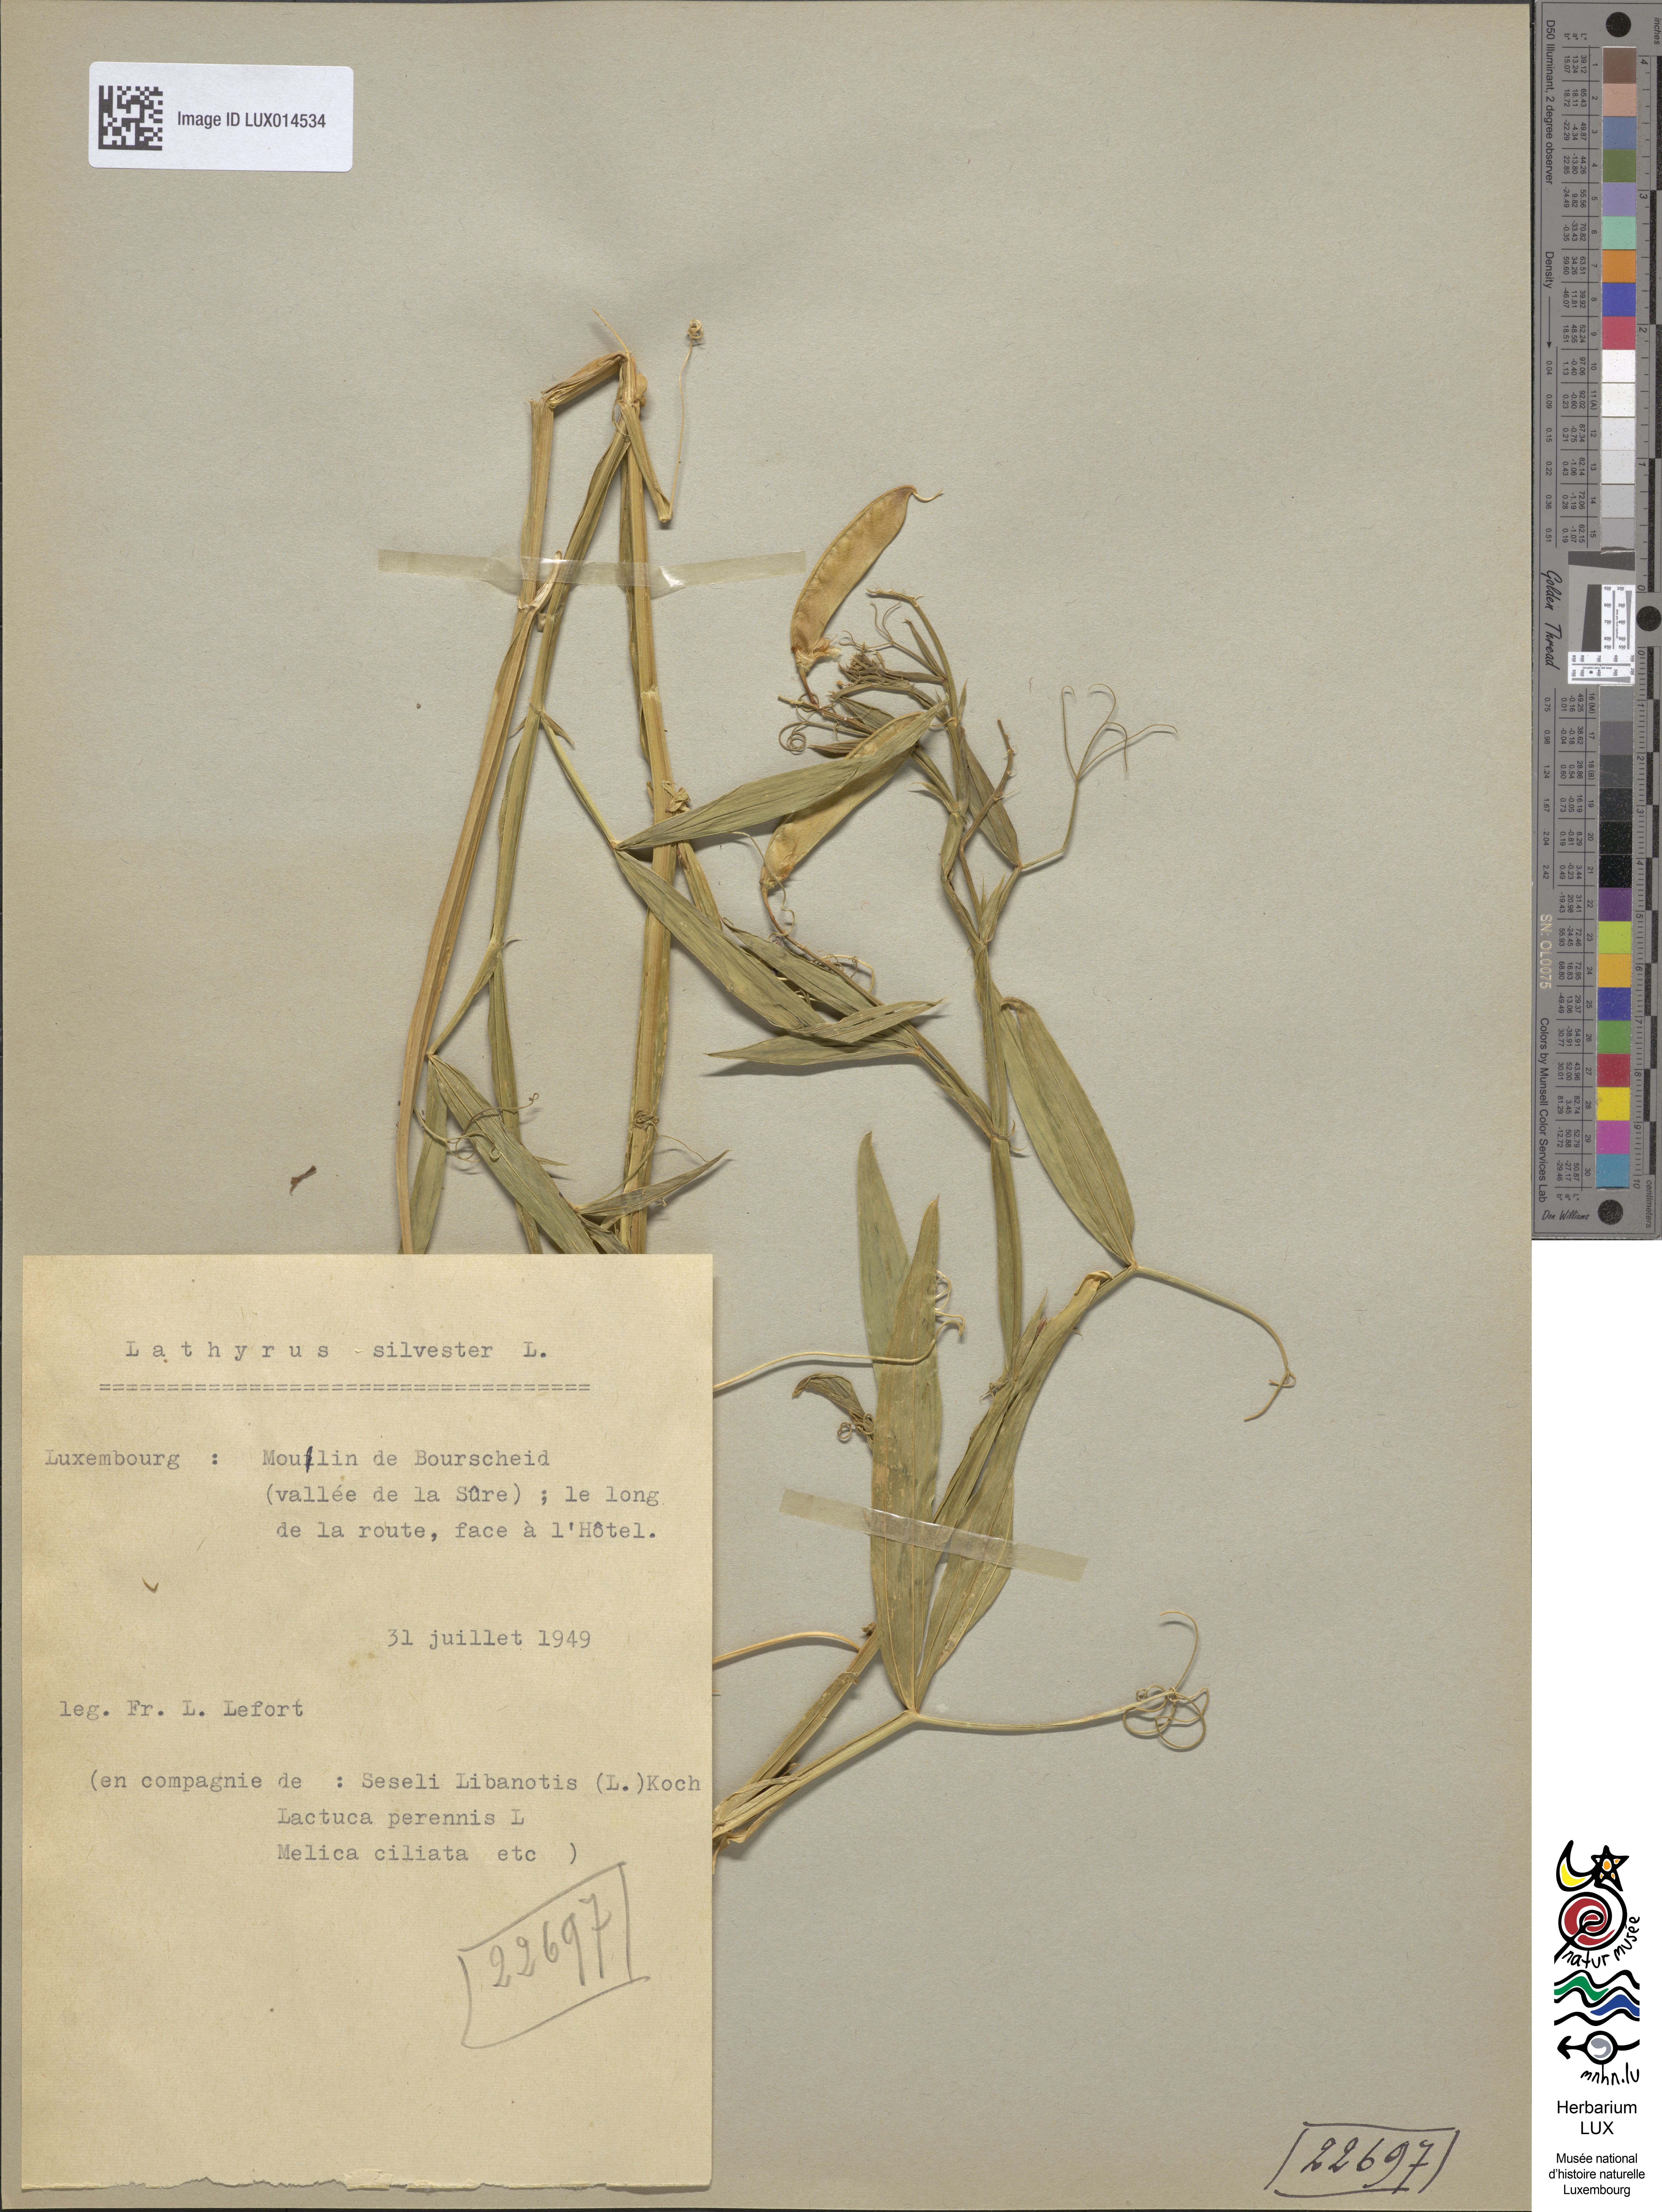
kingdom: Plantae
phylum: Tracheophyta
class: Magnoliopsida
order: Fabales
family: Fabaceae
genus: Lathyrus
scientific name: Lathyrus sylvestris
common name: Flat pea
